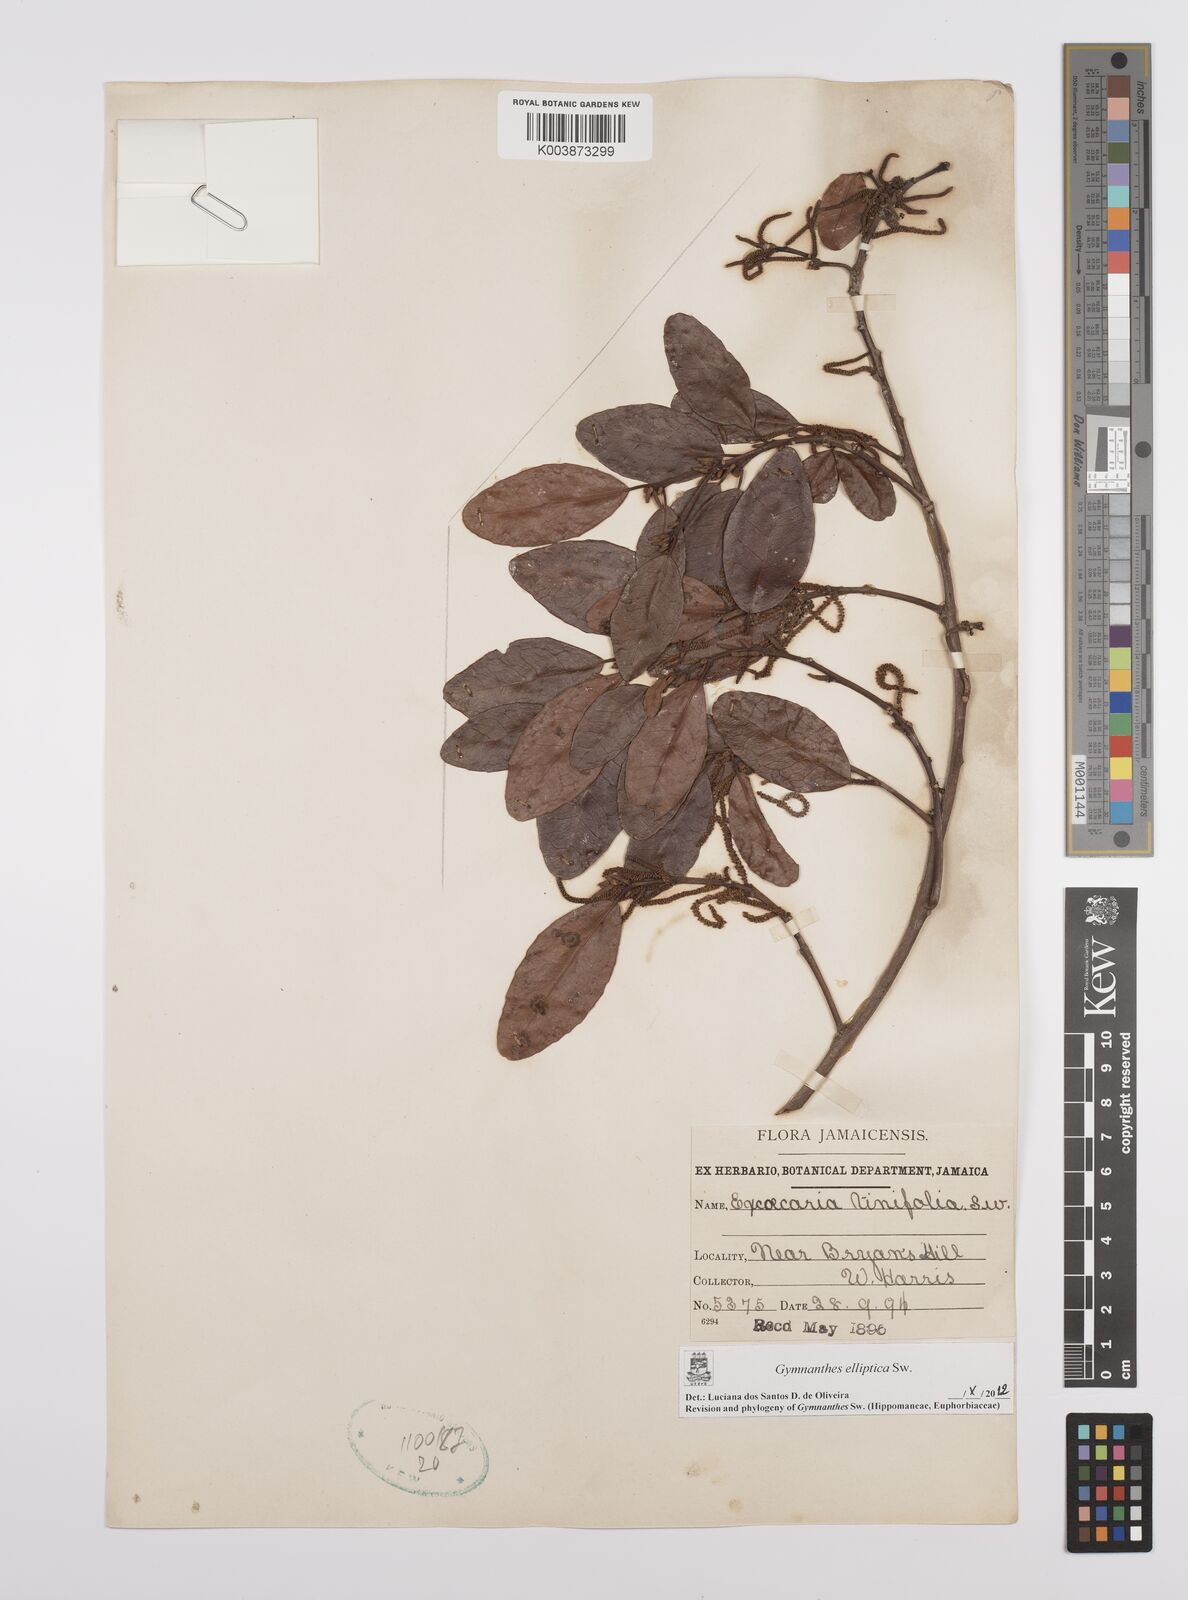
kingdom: Plantae
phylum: Tracheophyta
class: Magnoliopsida
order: Malpighiales
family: Euphorbiaceae
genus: Dendrocousinsia
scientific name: Dendrocousinsia elliptica
